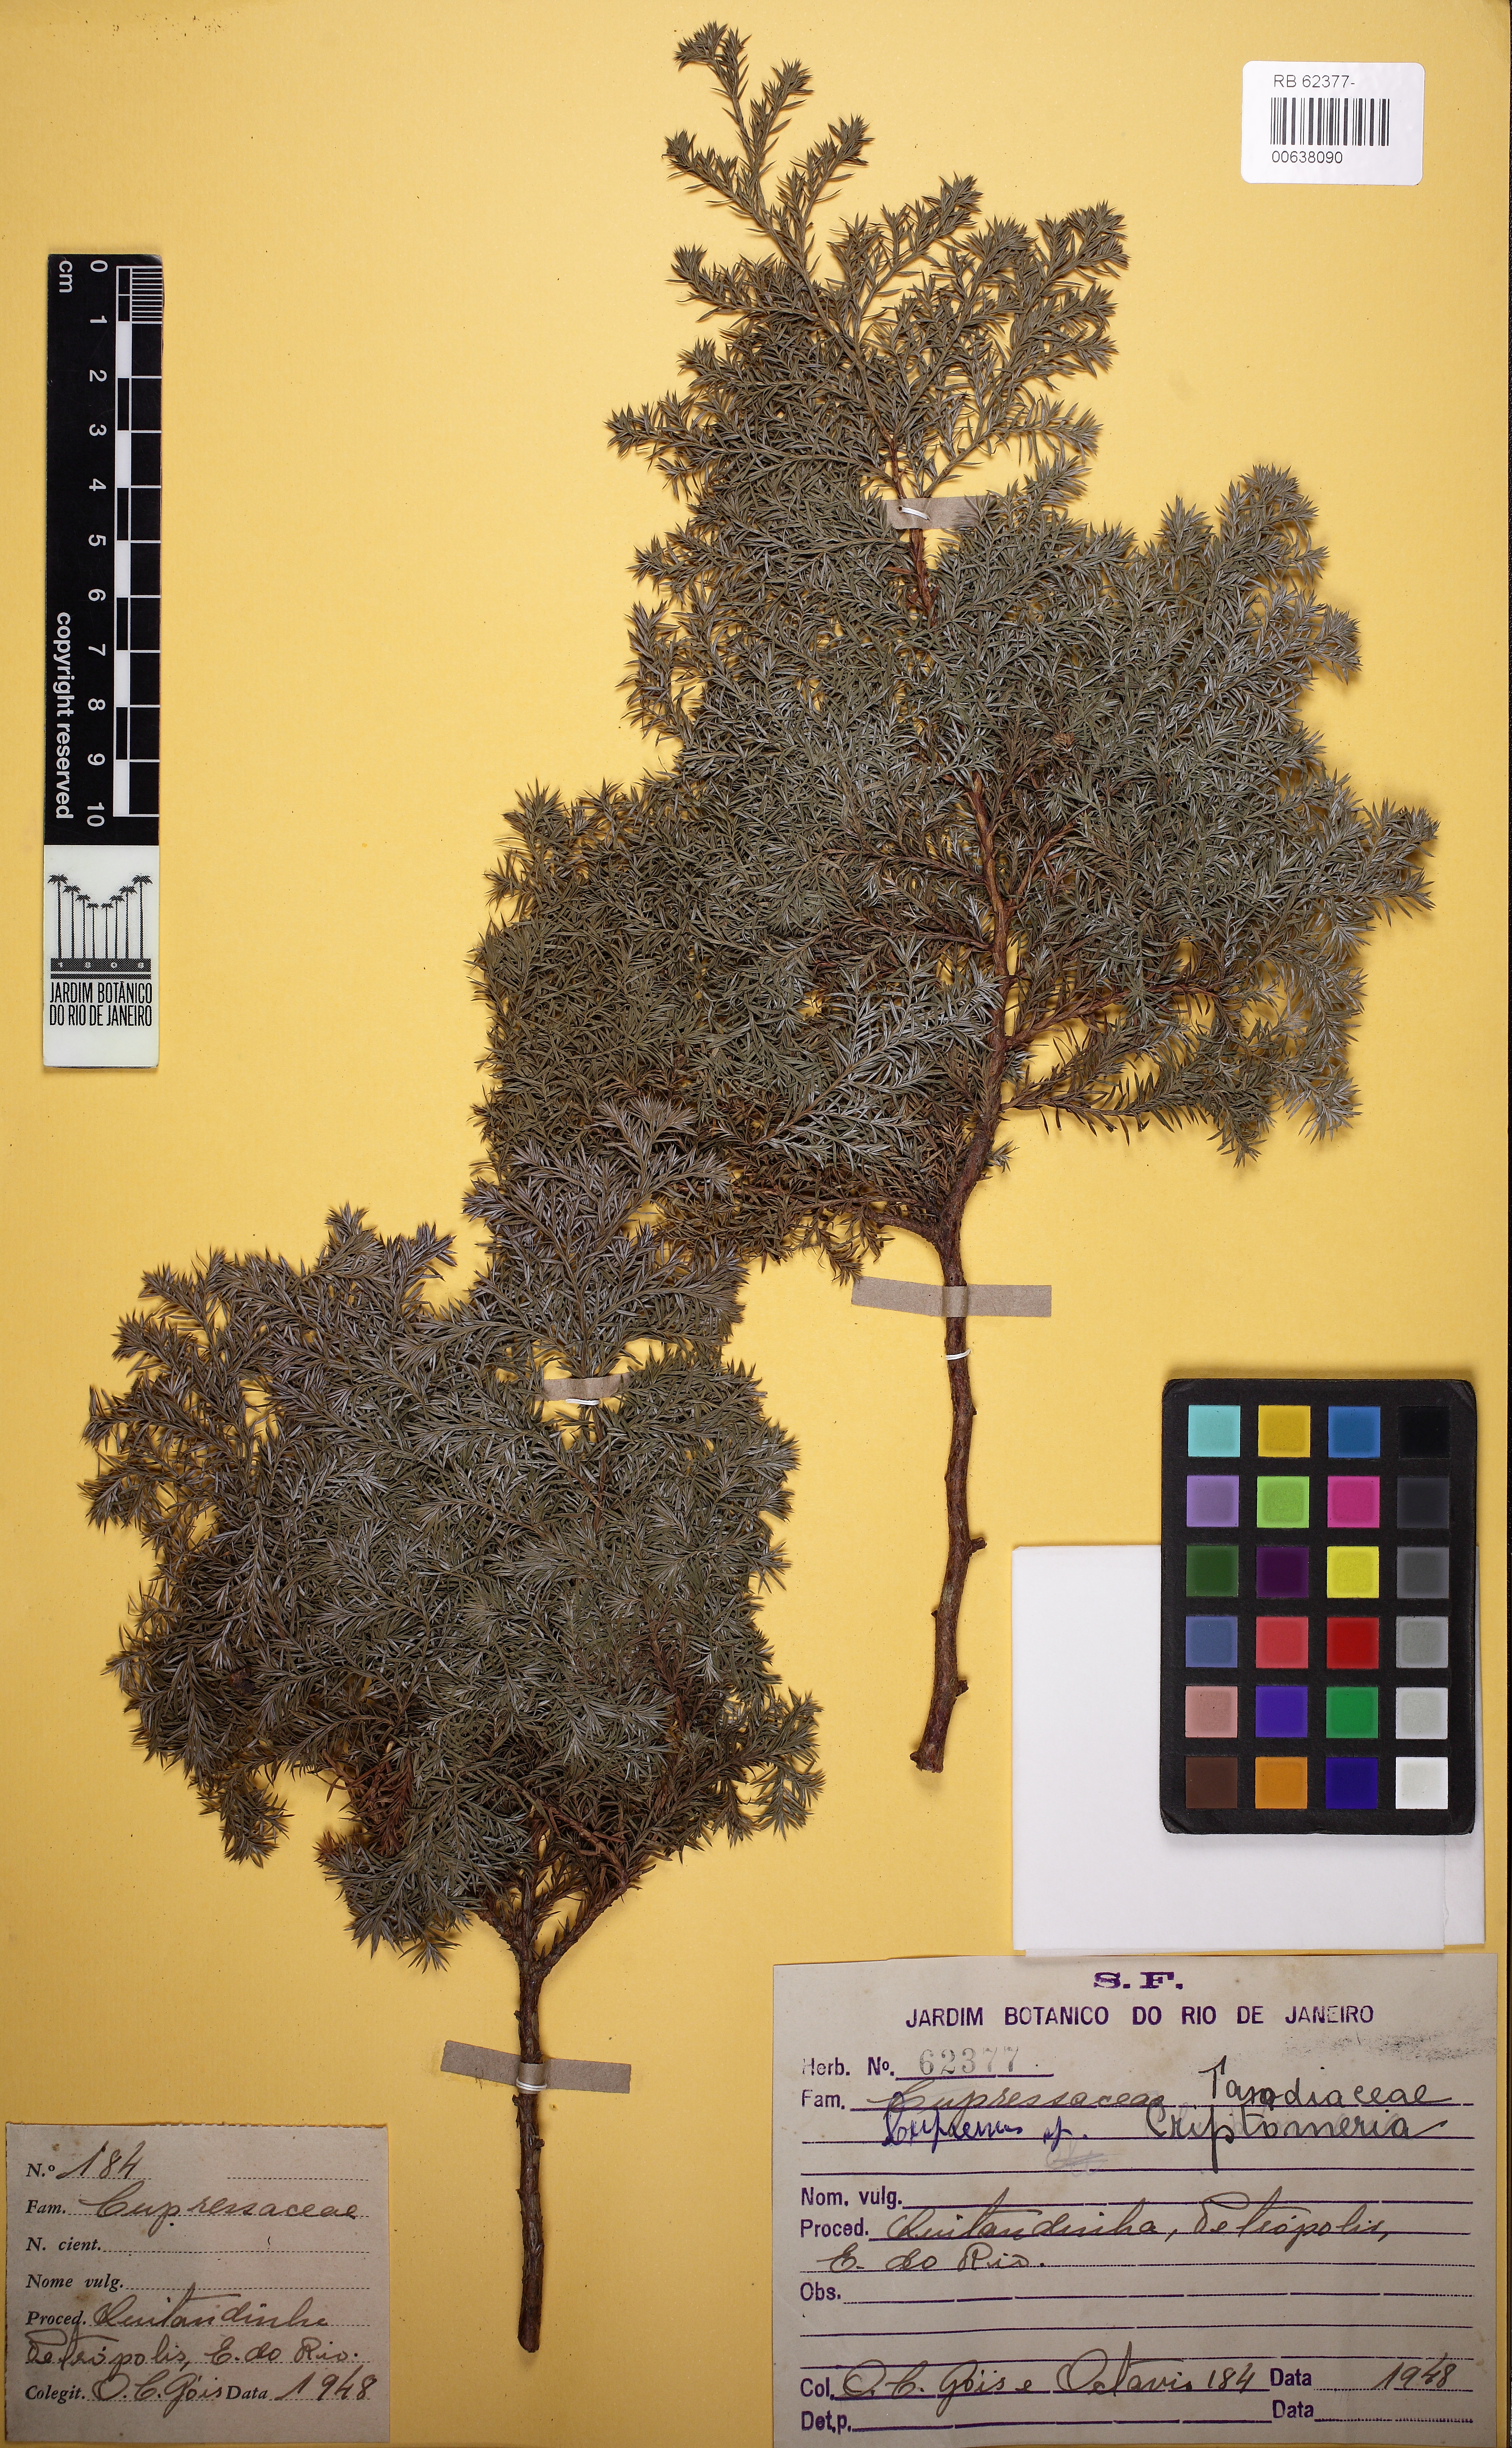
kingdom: Plantae
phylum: Tracheophyta
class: Pinopsida
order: Pinales
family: Cupressaceae
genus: Cryptomeria
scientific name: Cryptomeria
